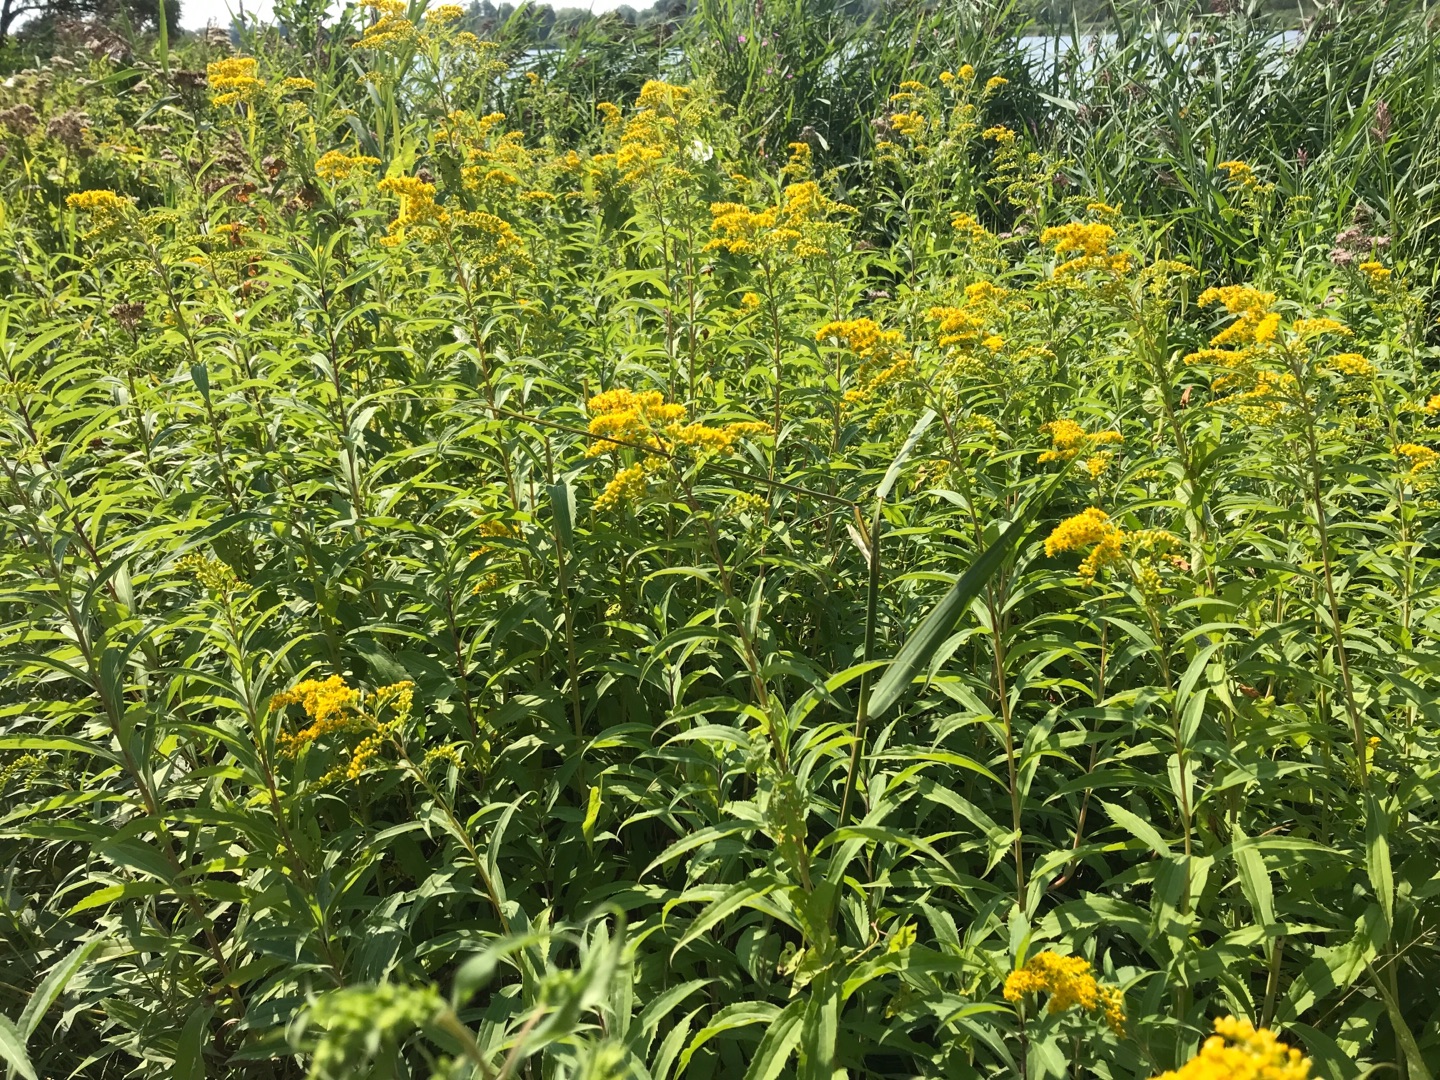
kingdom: Plantae
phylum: Tracheophyta
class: Magnoliopsida
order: Asterales
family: Asteraceae
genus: Solidago
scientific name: Solidago gigantea
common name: Sildig gyldenris
